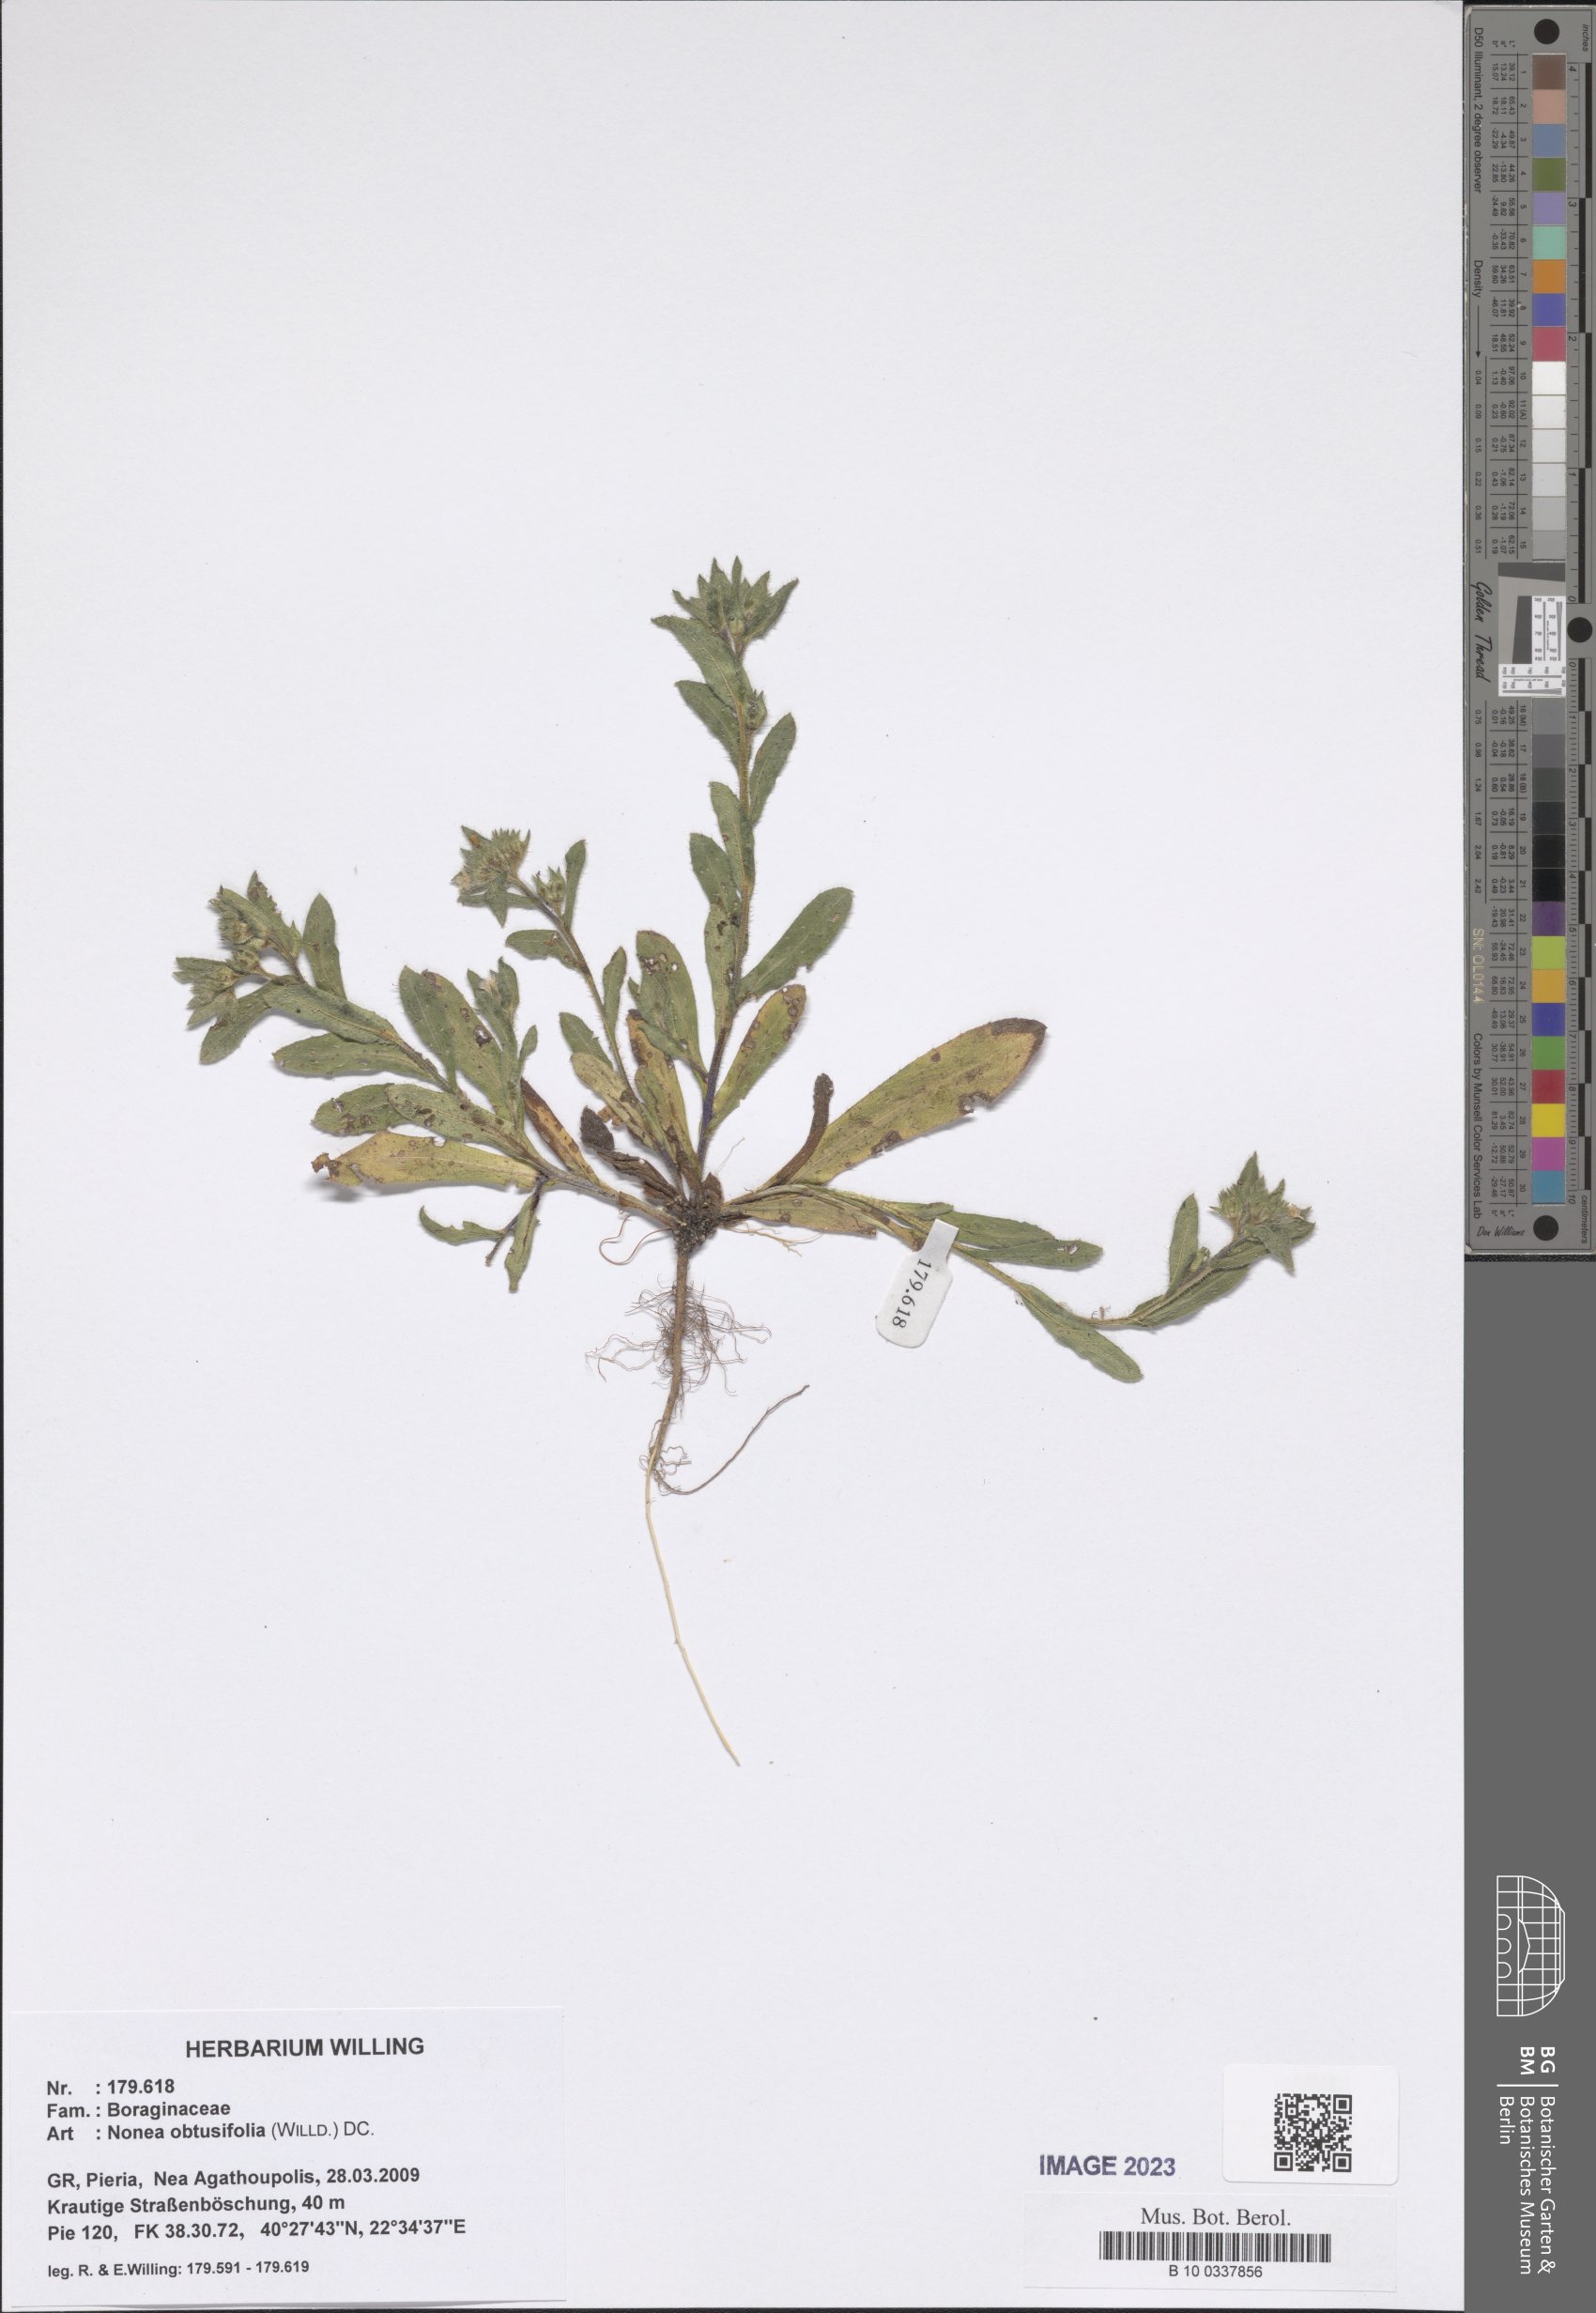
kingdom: Plantae
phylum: Tracheophyta
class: Magnoliopsida
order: Boraginales
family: Boraginaceae
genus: Melanortocarya
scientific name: Melanortocarya obtusifolia
